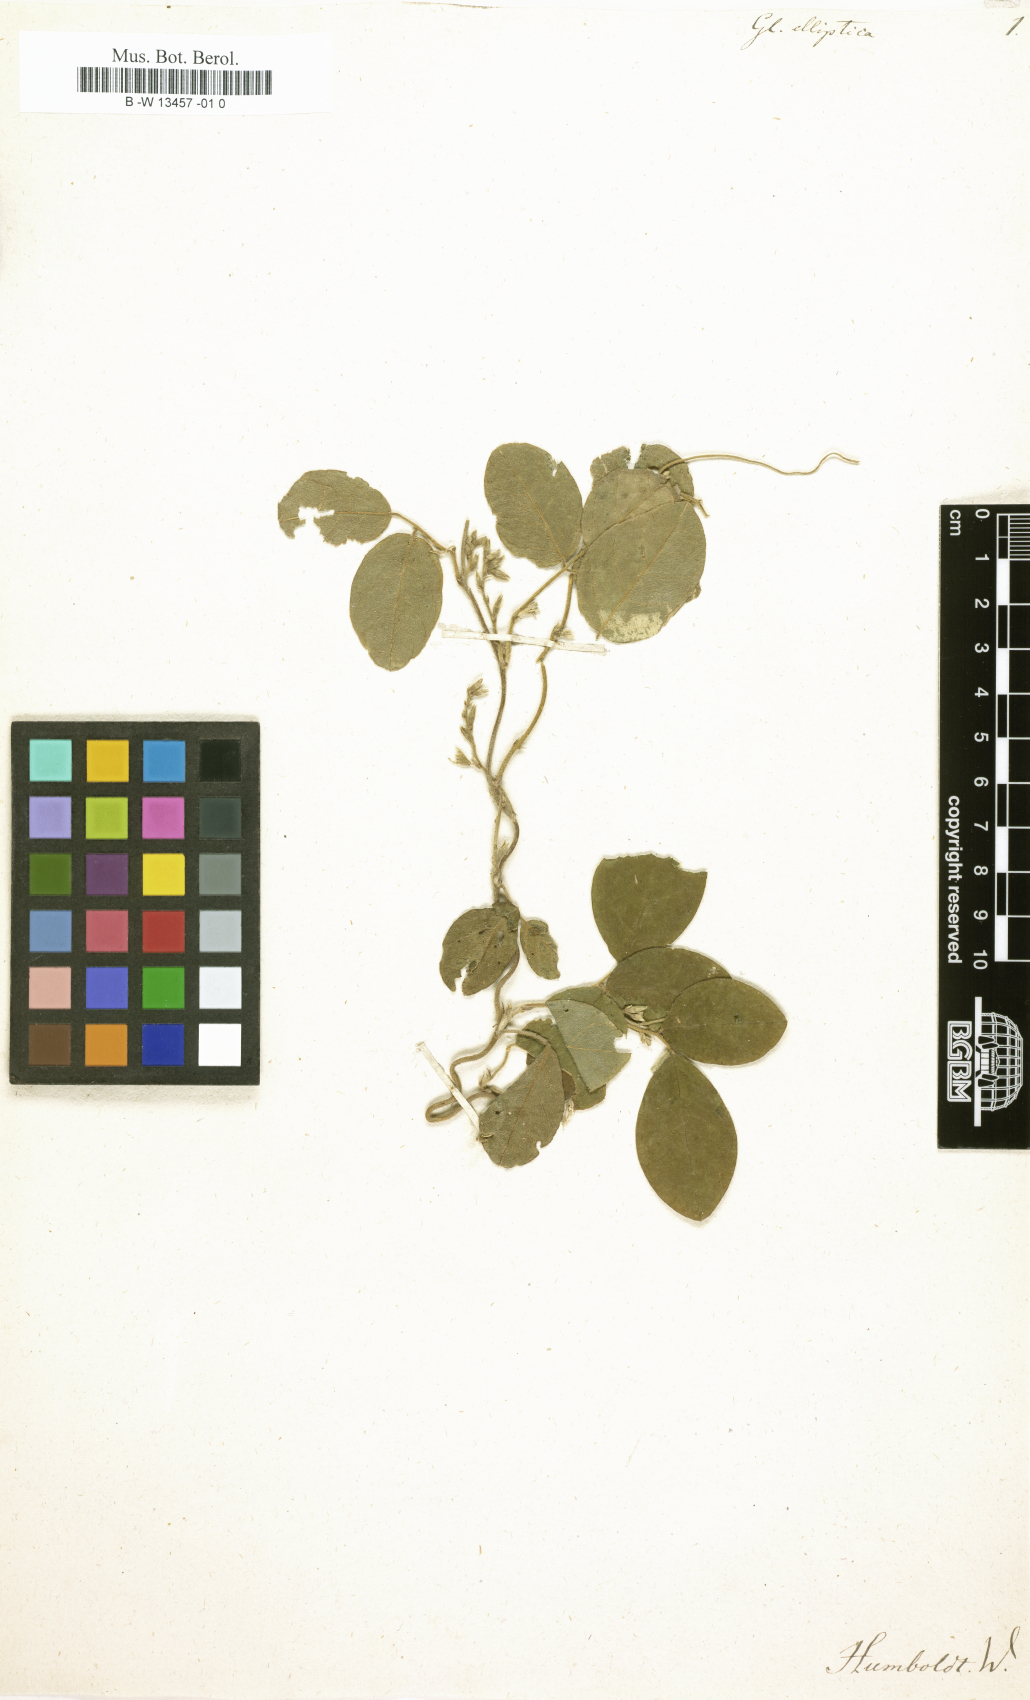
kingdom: Plantae
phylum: Tracheophyta
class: Magnoliopsida
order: Fabales
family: Fabaceae
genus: Teramnus
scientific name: Teramnus uncinatus
